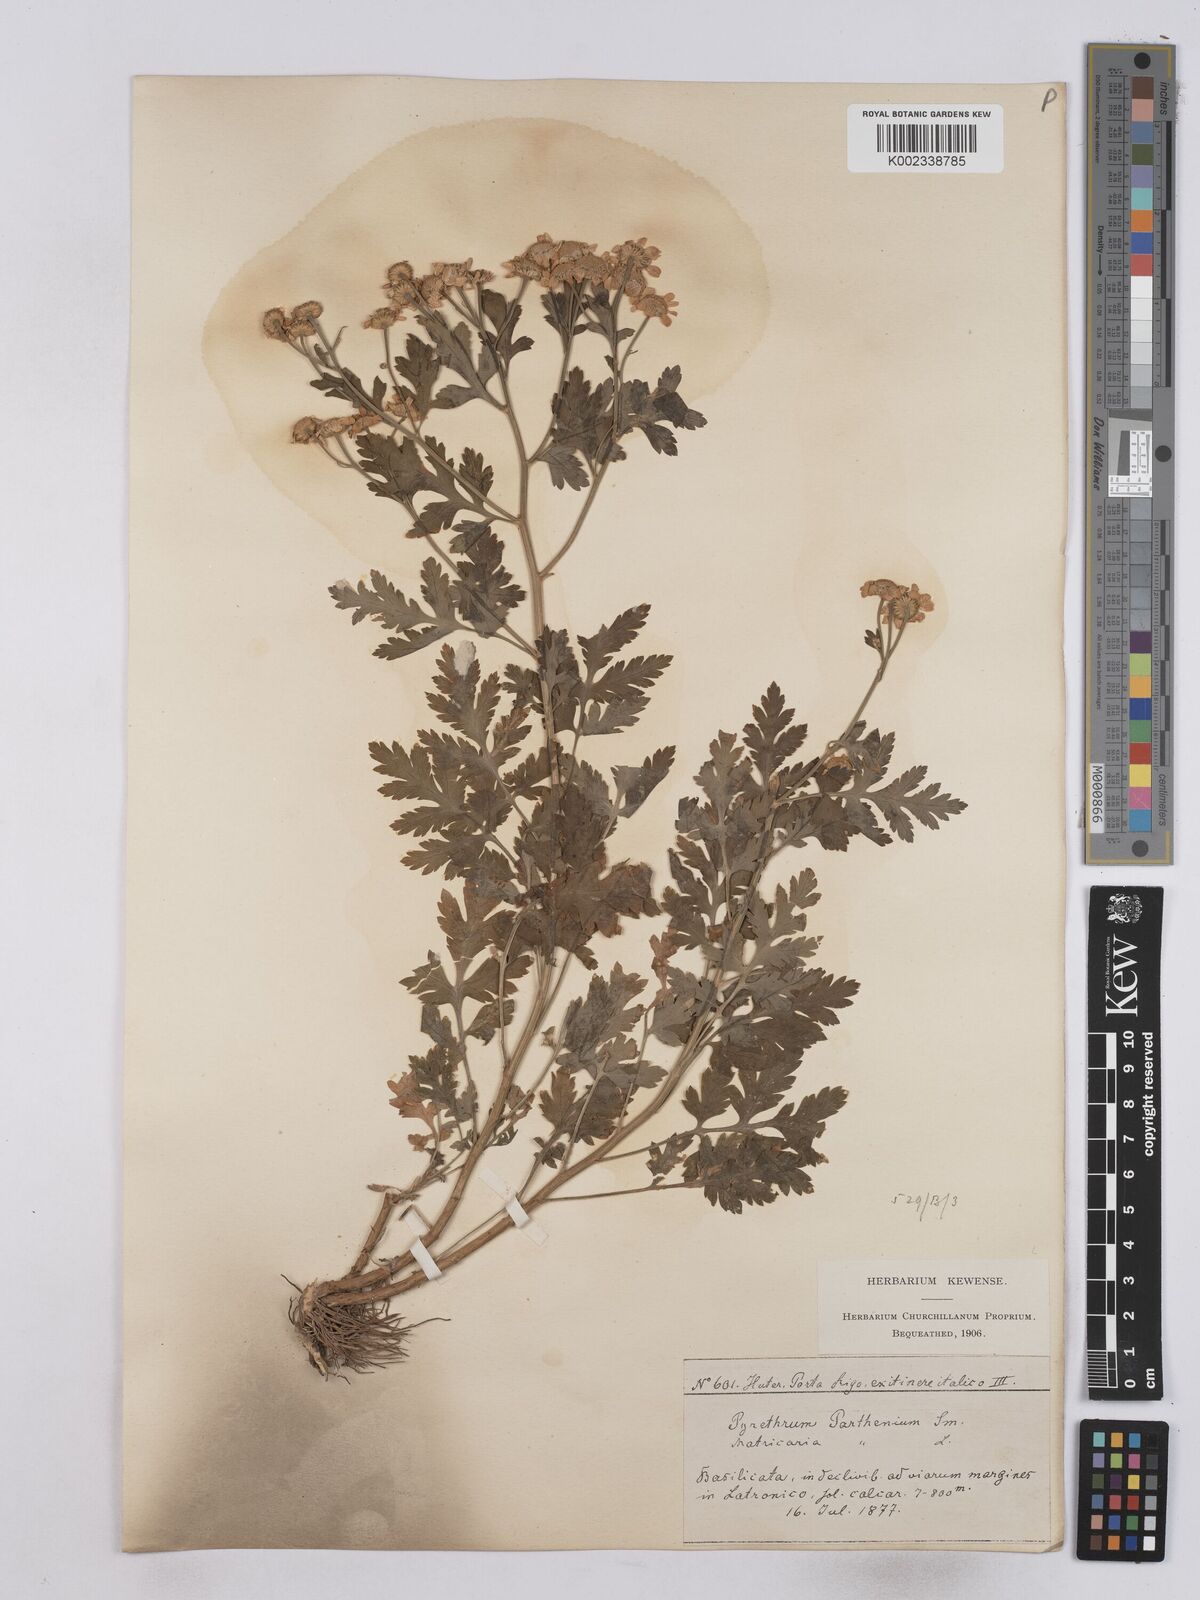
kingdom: Plantae
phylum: Tracheophyta
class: Magnoliopsida
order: Asterales
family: Asteraceae
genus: Tanacetum
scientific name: Tanacetum parthenium
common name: Feverfew
